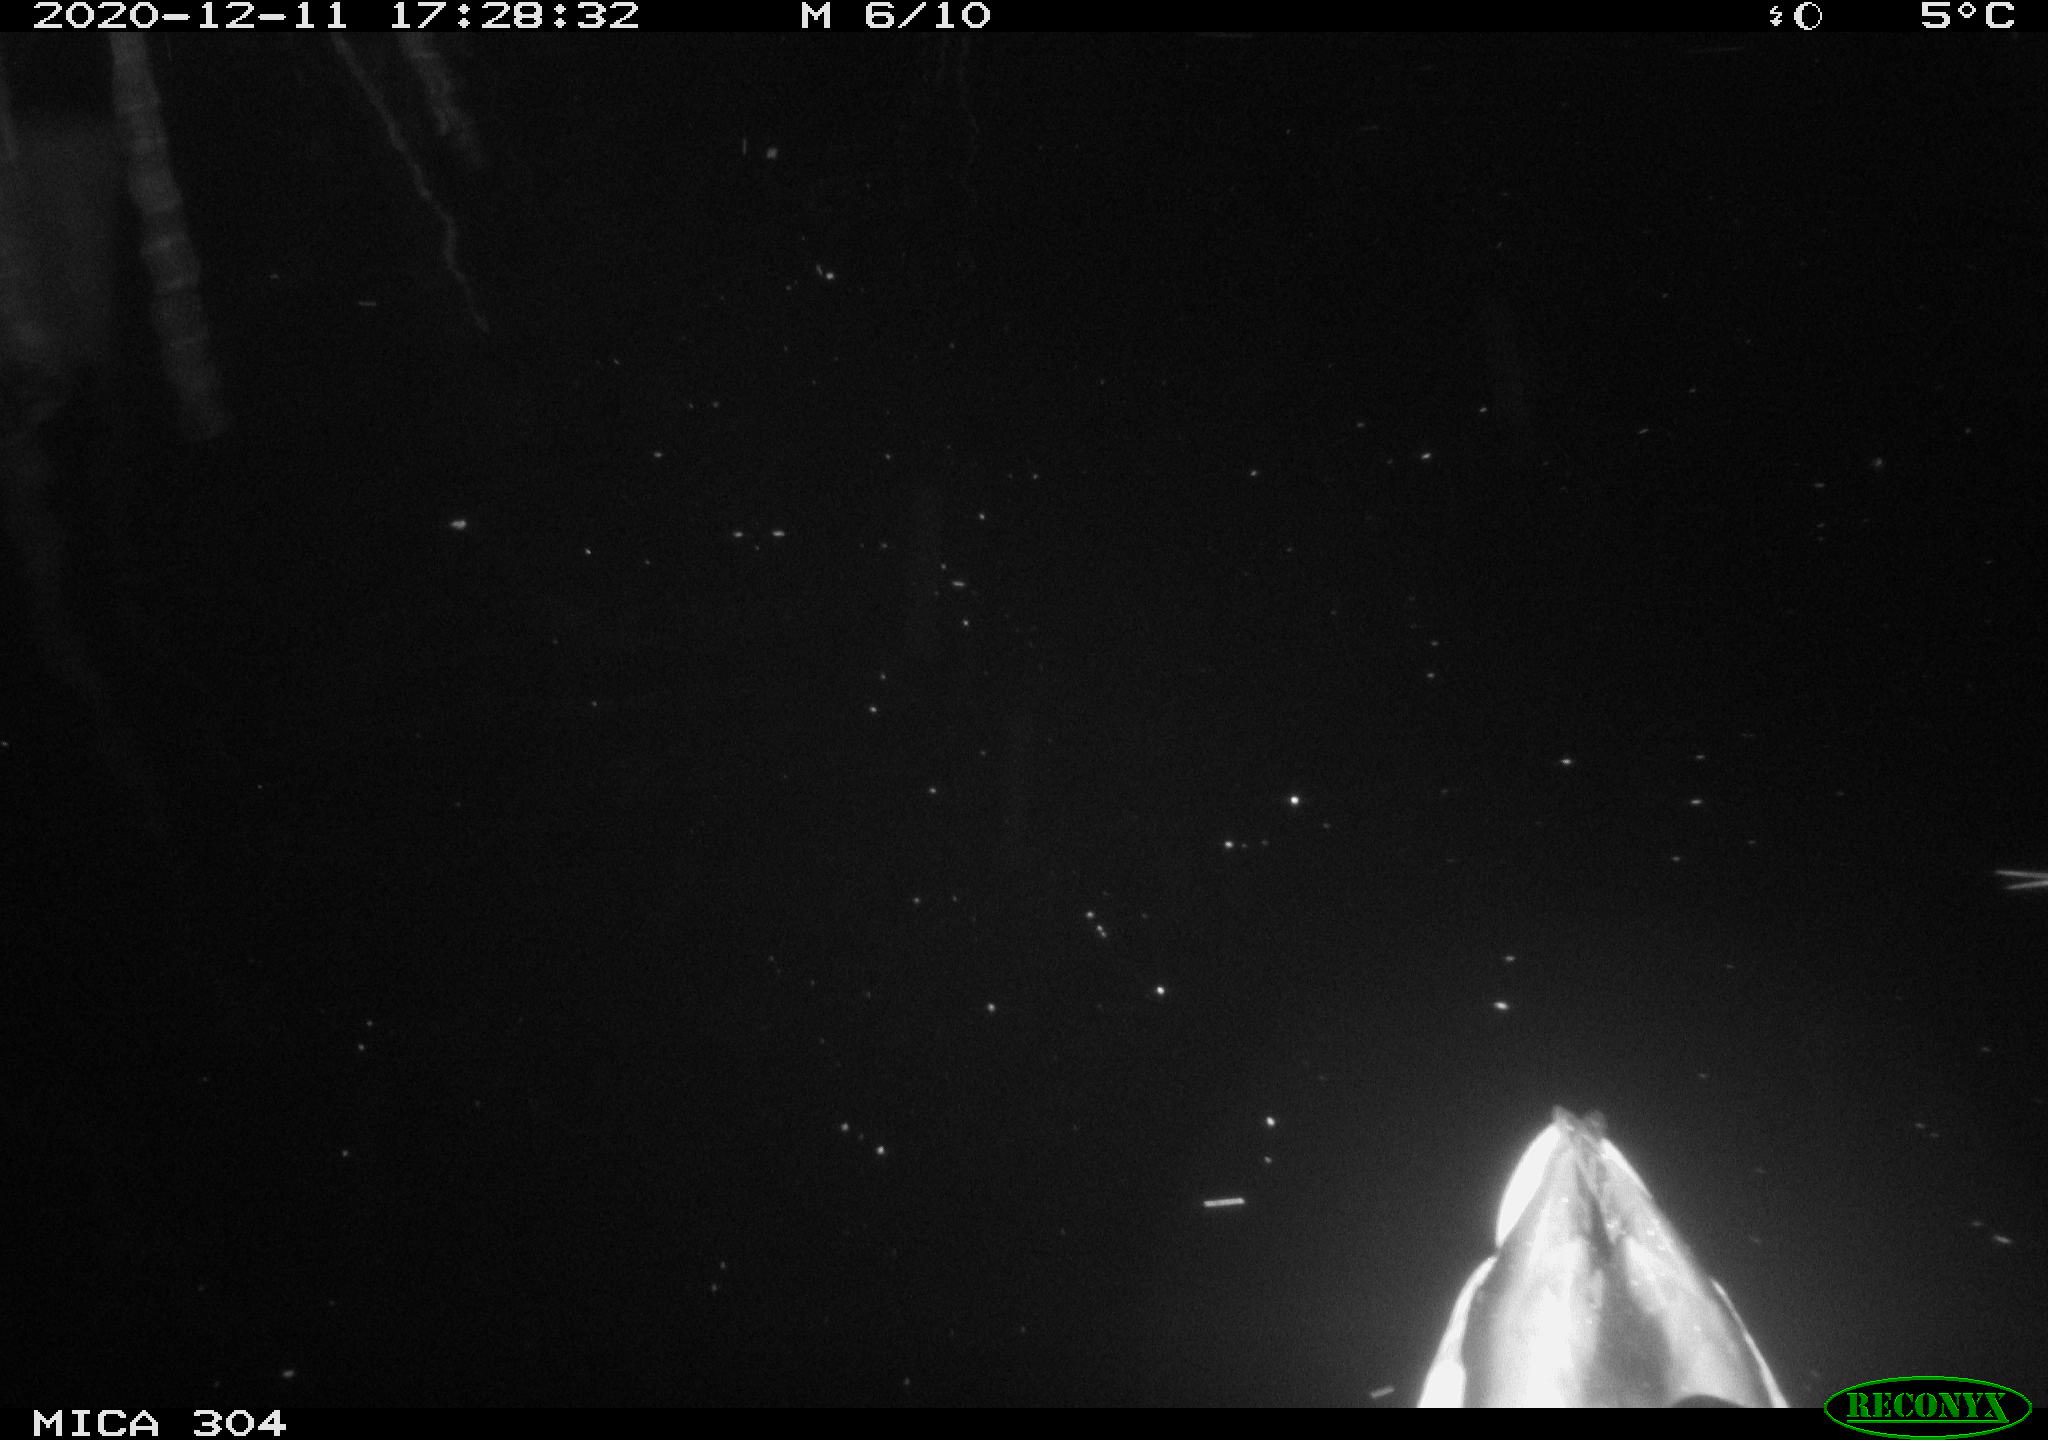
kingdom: Animalia
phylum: Chordata
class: Aves
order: Anseriformes
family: Anatidae
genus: Anas
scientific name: Anas platyrhynchos
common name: Mallard
